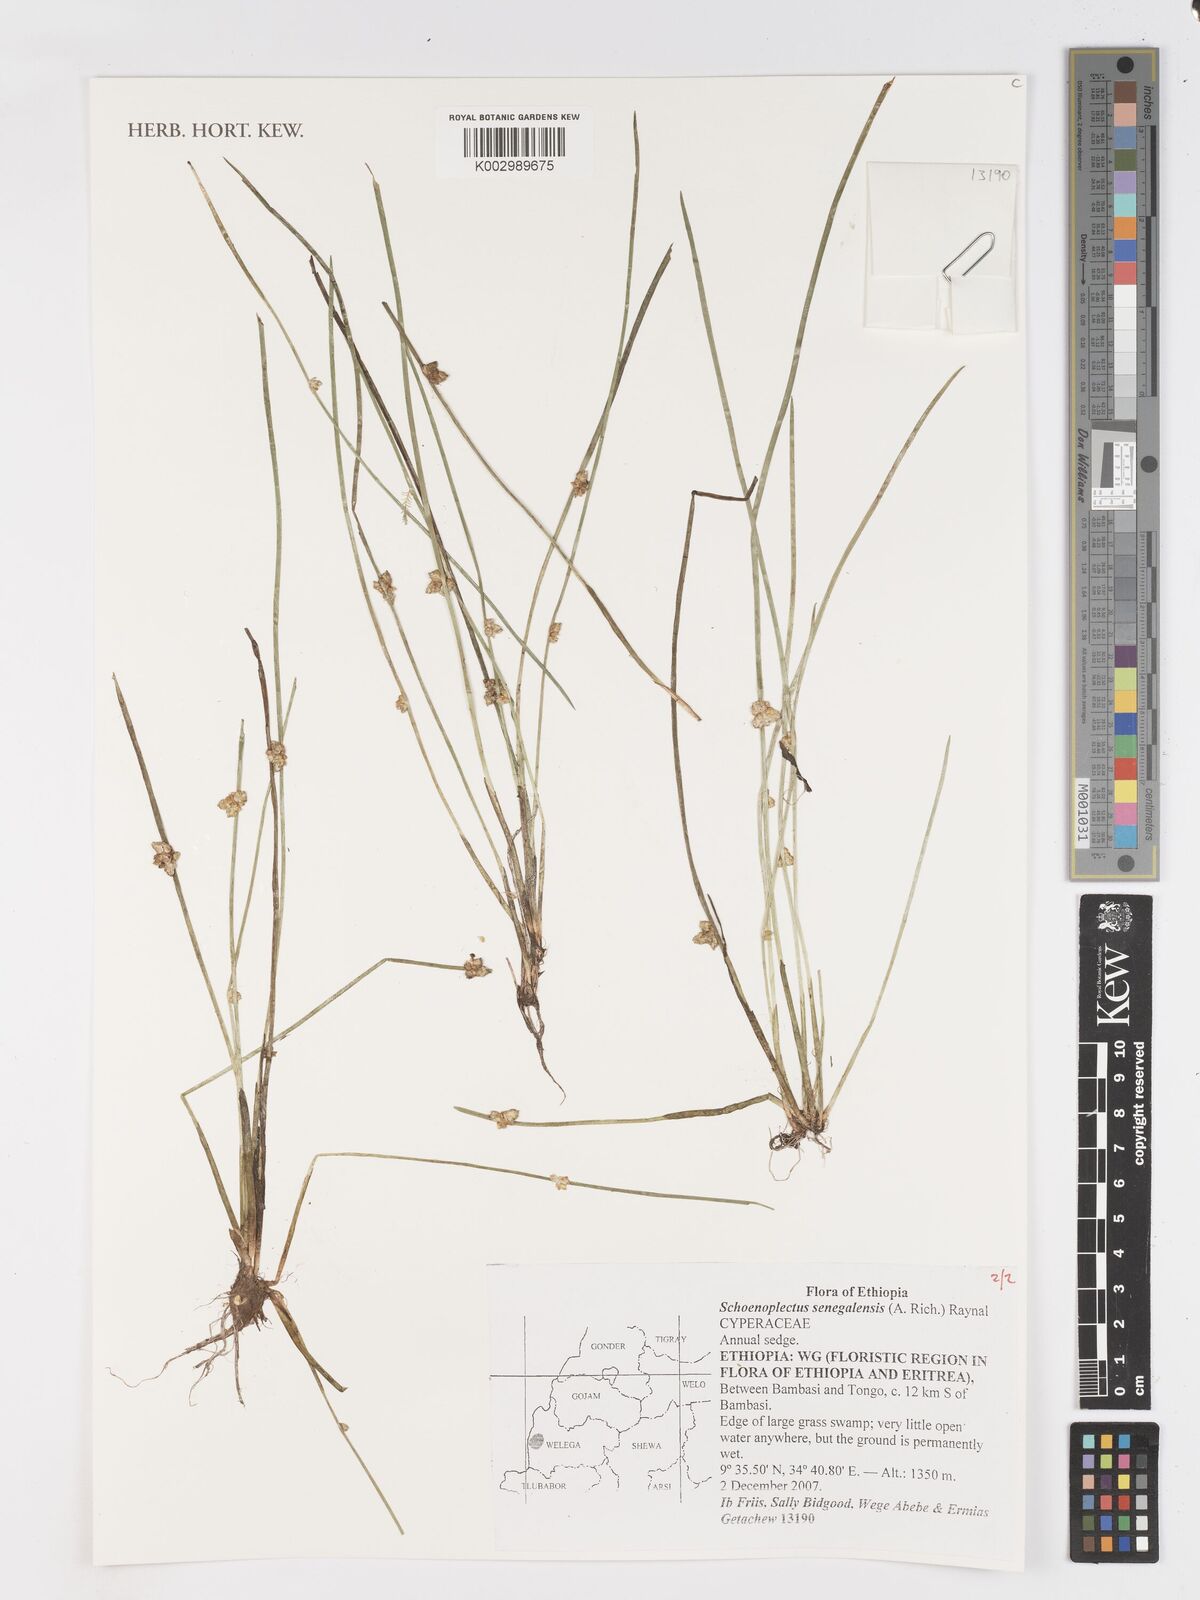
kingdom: Plantae
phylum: Tracheophyta
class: Liliopsida
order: Poales
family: Cyperaceae
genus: Schoenoplectiella
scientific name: Schoenoplectiella senegalensis
